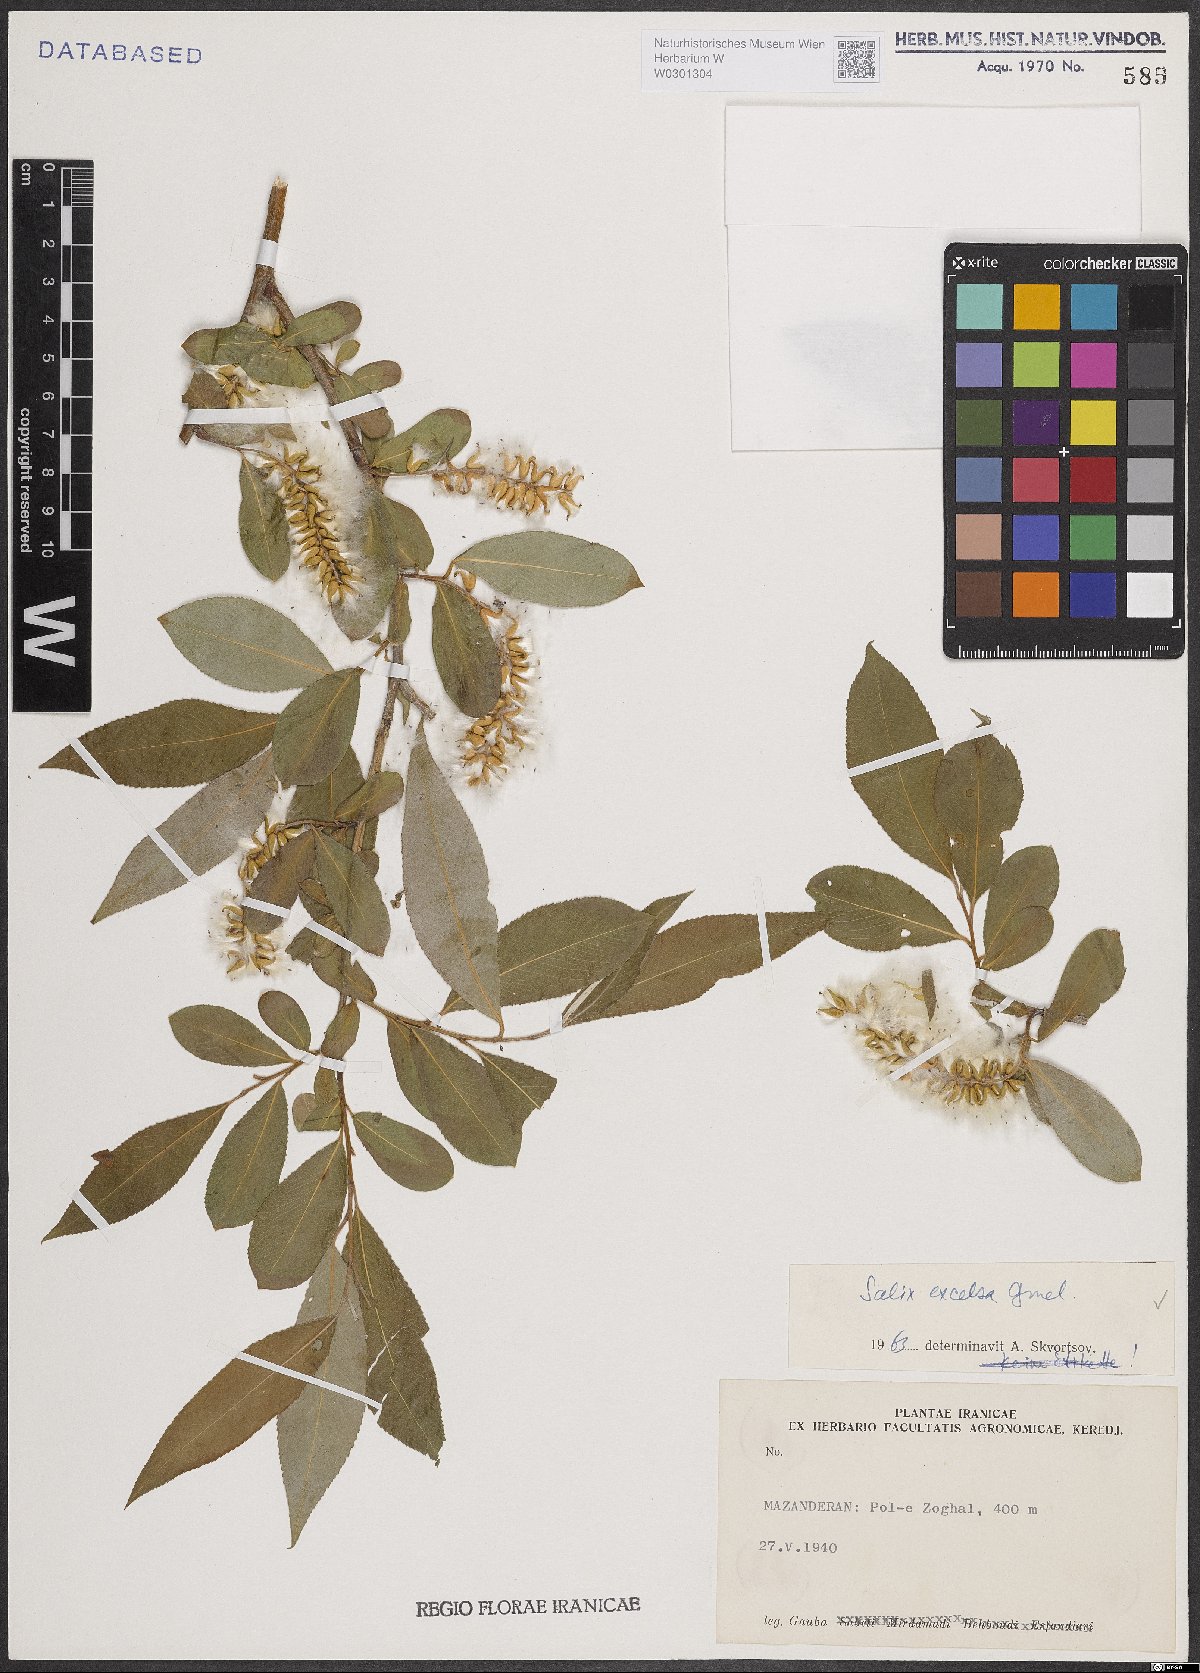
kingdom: Plantae
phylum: Tracheophyta
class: Magnoliopsida
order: Malpighiales
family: Salicaceae
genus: Salix
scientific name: Salix excelsa
